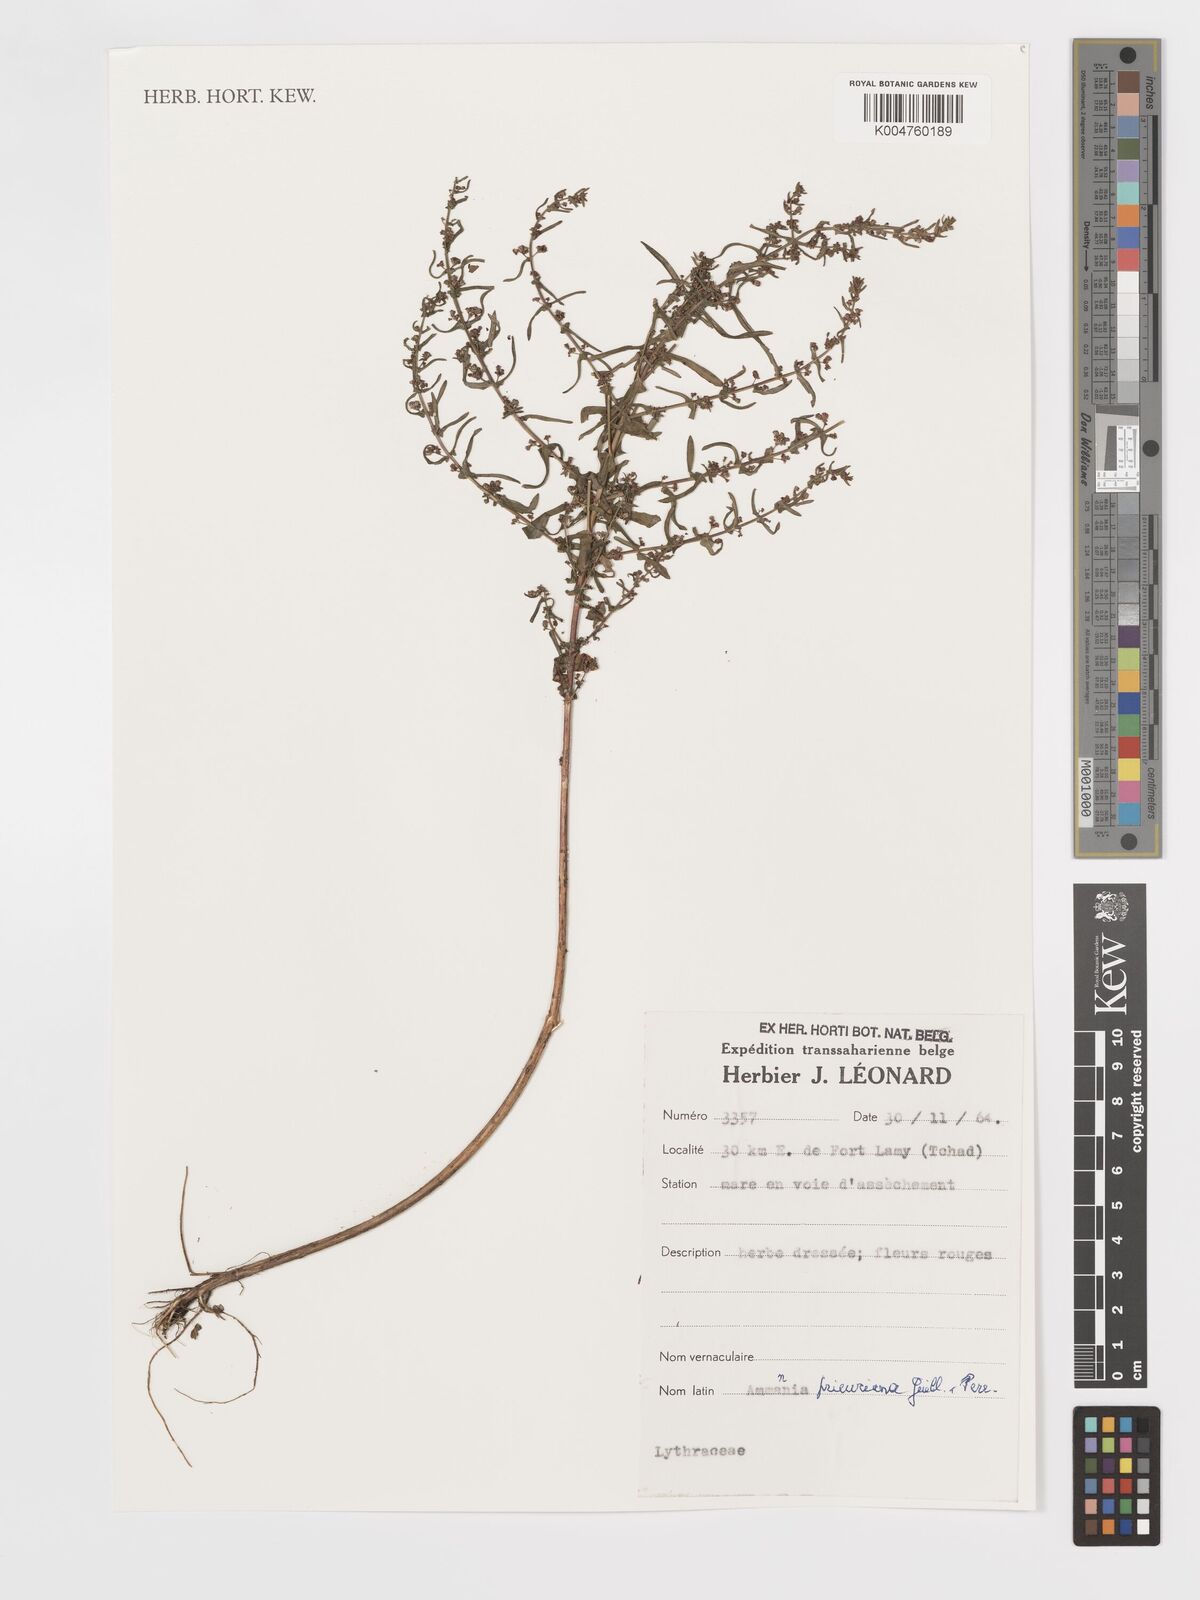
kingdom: Plantae
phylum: Tracheophyta
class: Magnoliopsida
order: Myrtales
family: Lythraceae
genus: Ammannia
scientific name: Ammannia prieuriana
